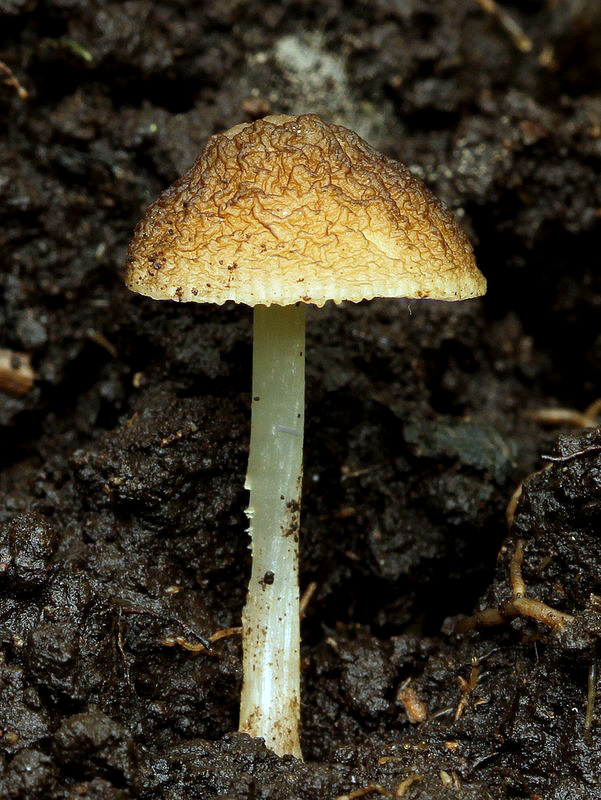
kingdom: Fungi
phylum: Basidiomycota
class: Agaricomycetes
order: Agaricales
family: Pluteaceae
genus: Pluteus
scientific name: Pluteus phlebophorus
